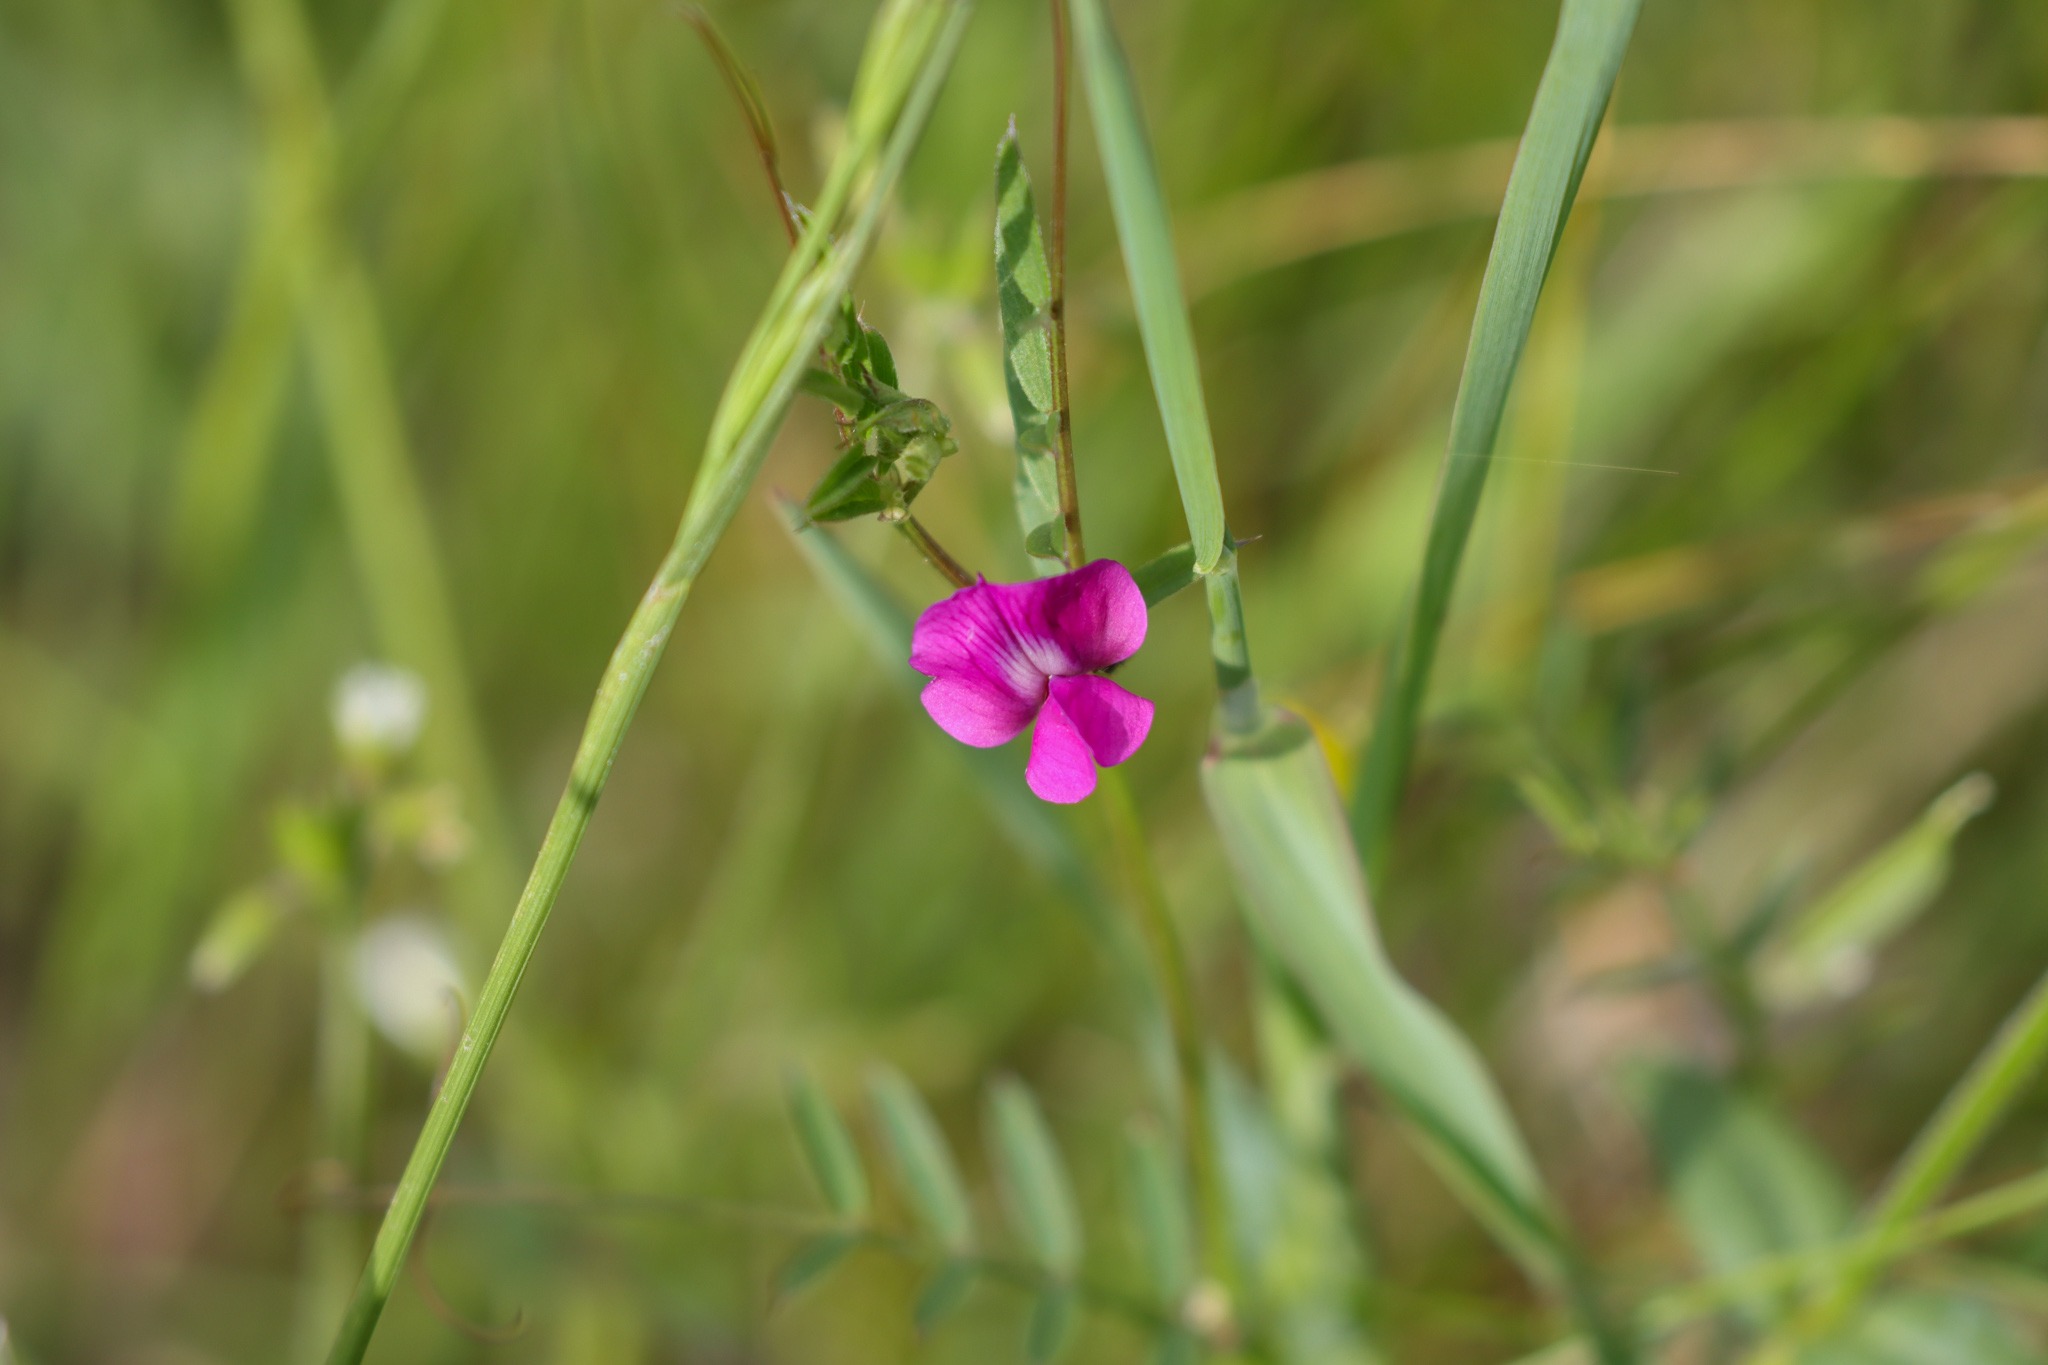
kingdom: Plantae
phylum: Tracheophyta
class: Magnoliopsida
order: Fabales
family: Fabaceae
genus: Vicia
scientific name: Vicia sativa
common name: Foder-vikke
